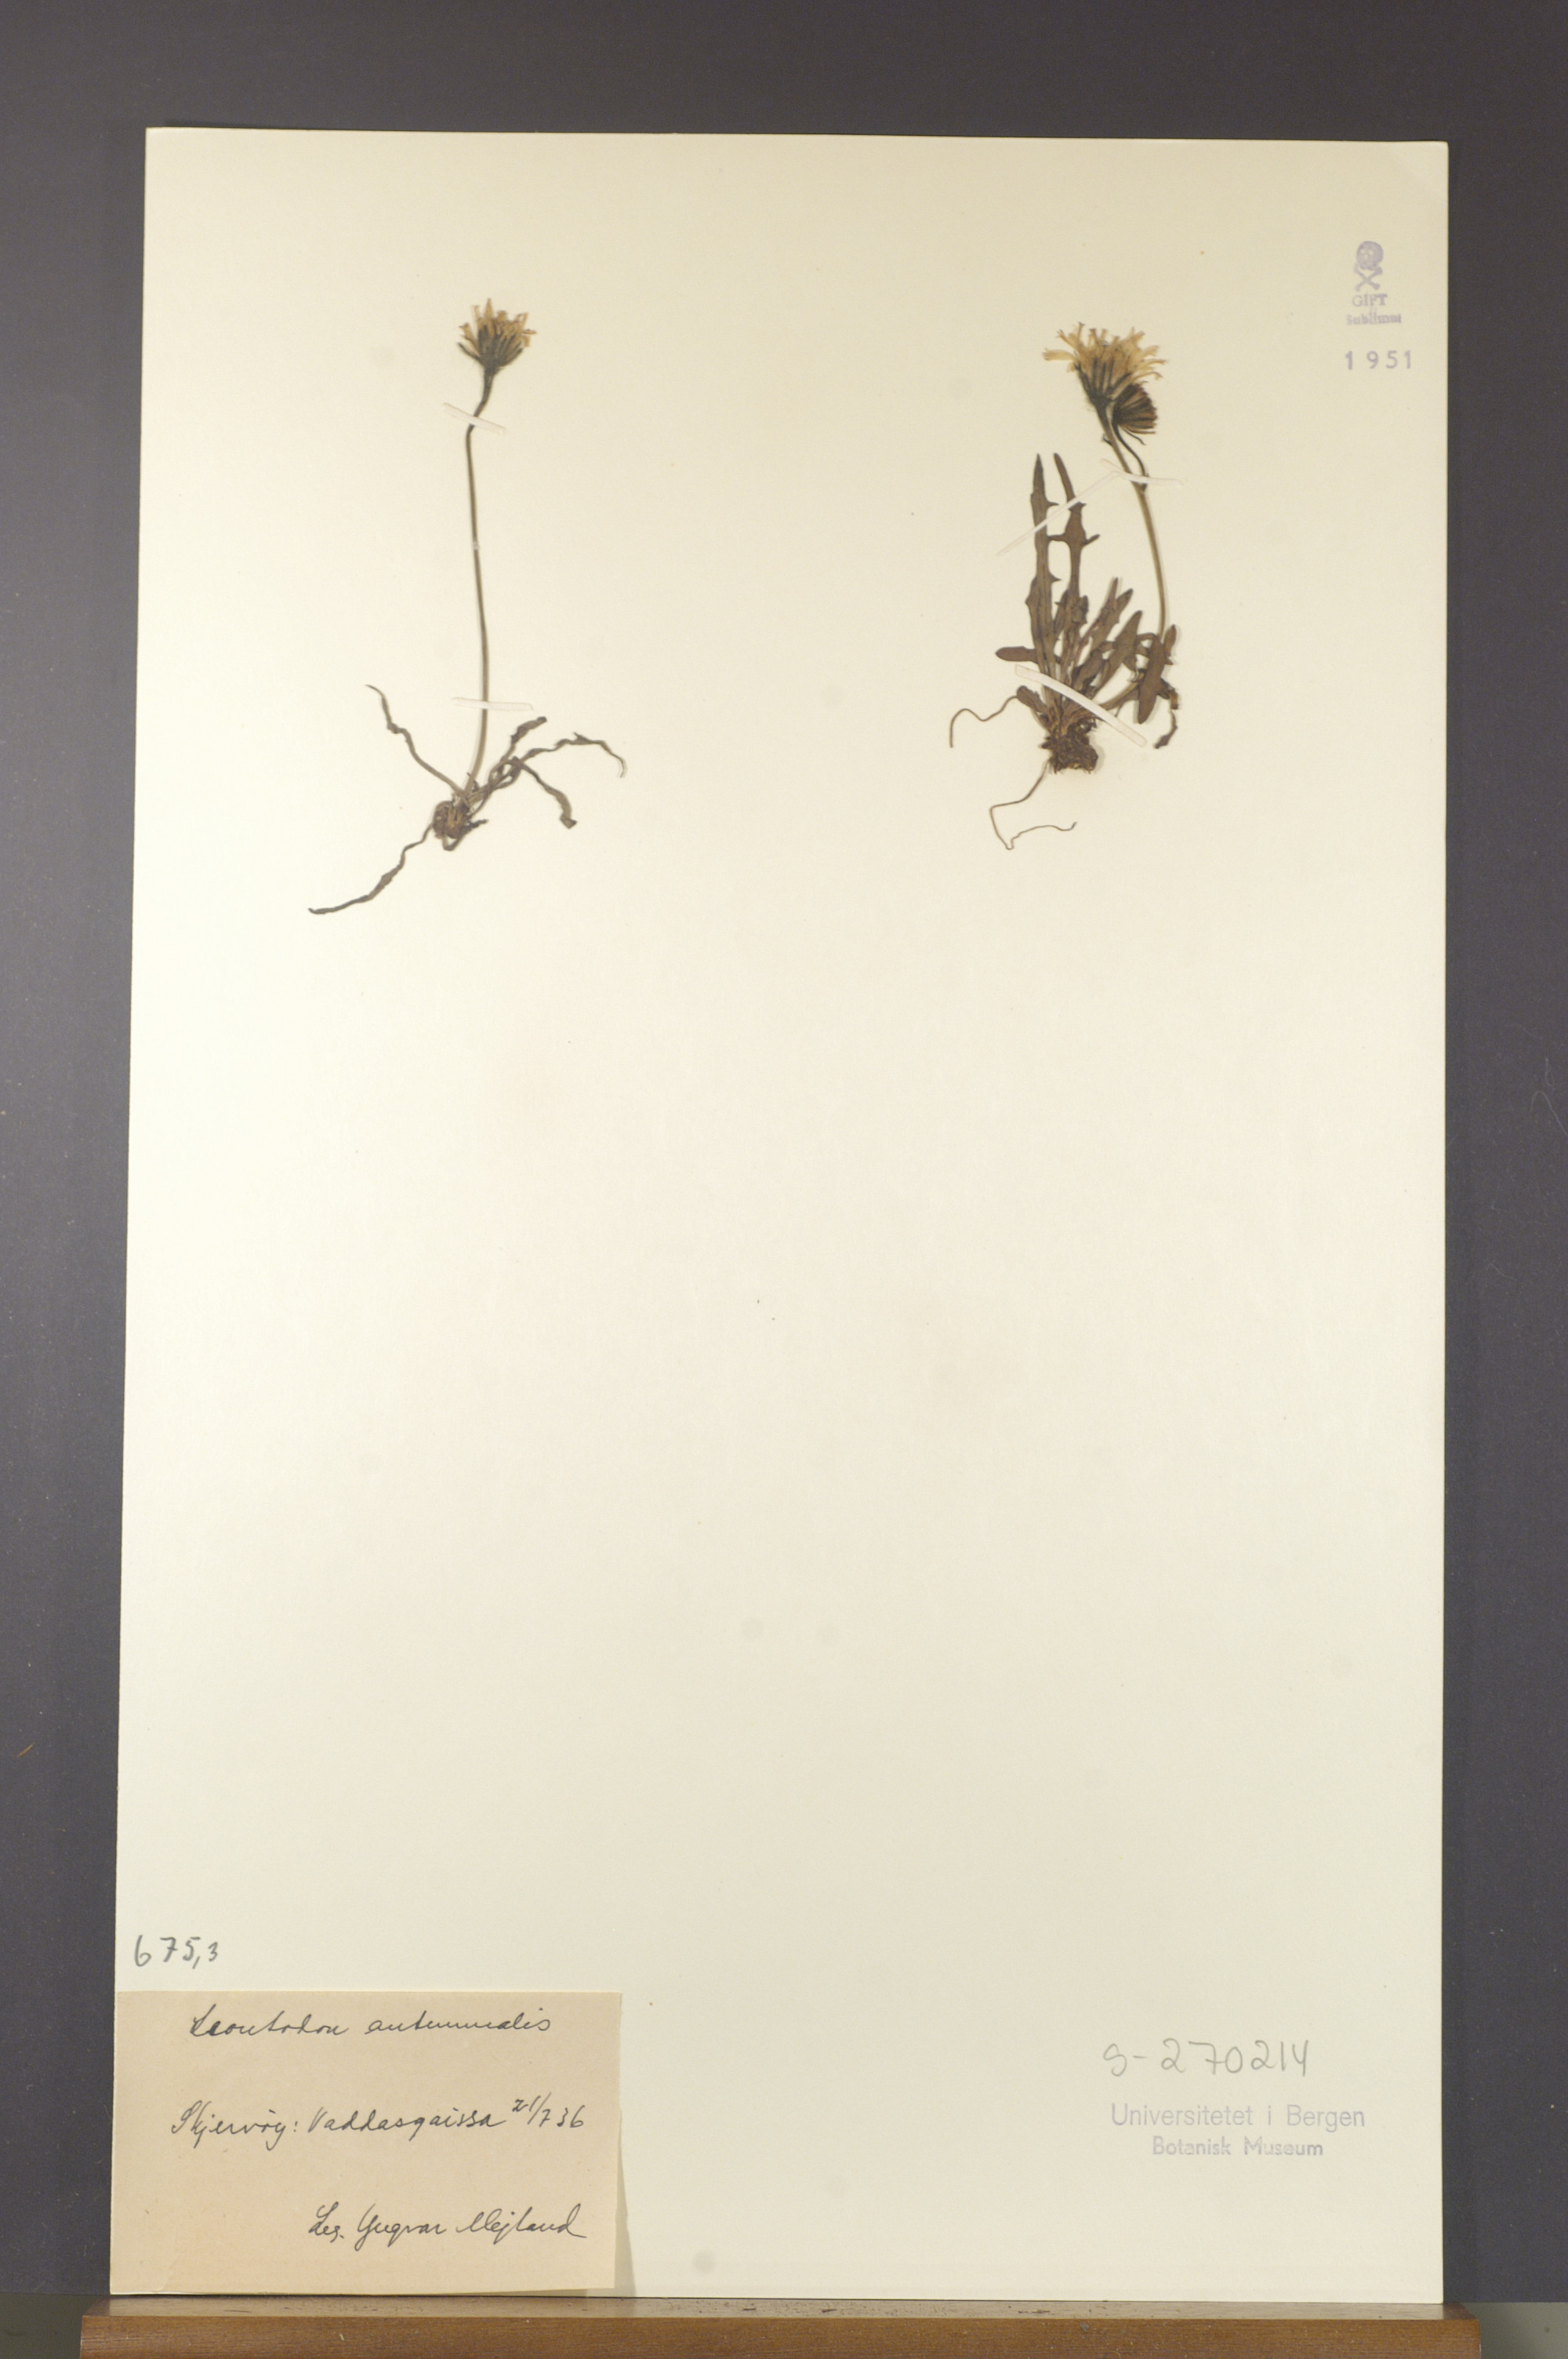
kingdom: Plantae
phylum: Tracheophyta
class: Magnoliopsida
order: Asterales
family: Asteraceae
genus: Scorzoneroides
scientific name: Scorzoneroides autumnalis
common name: Autumn hawkbit
